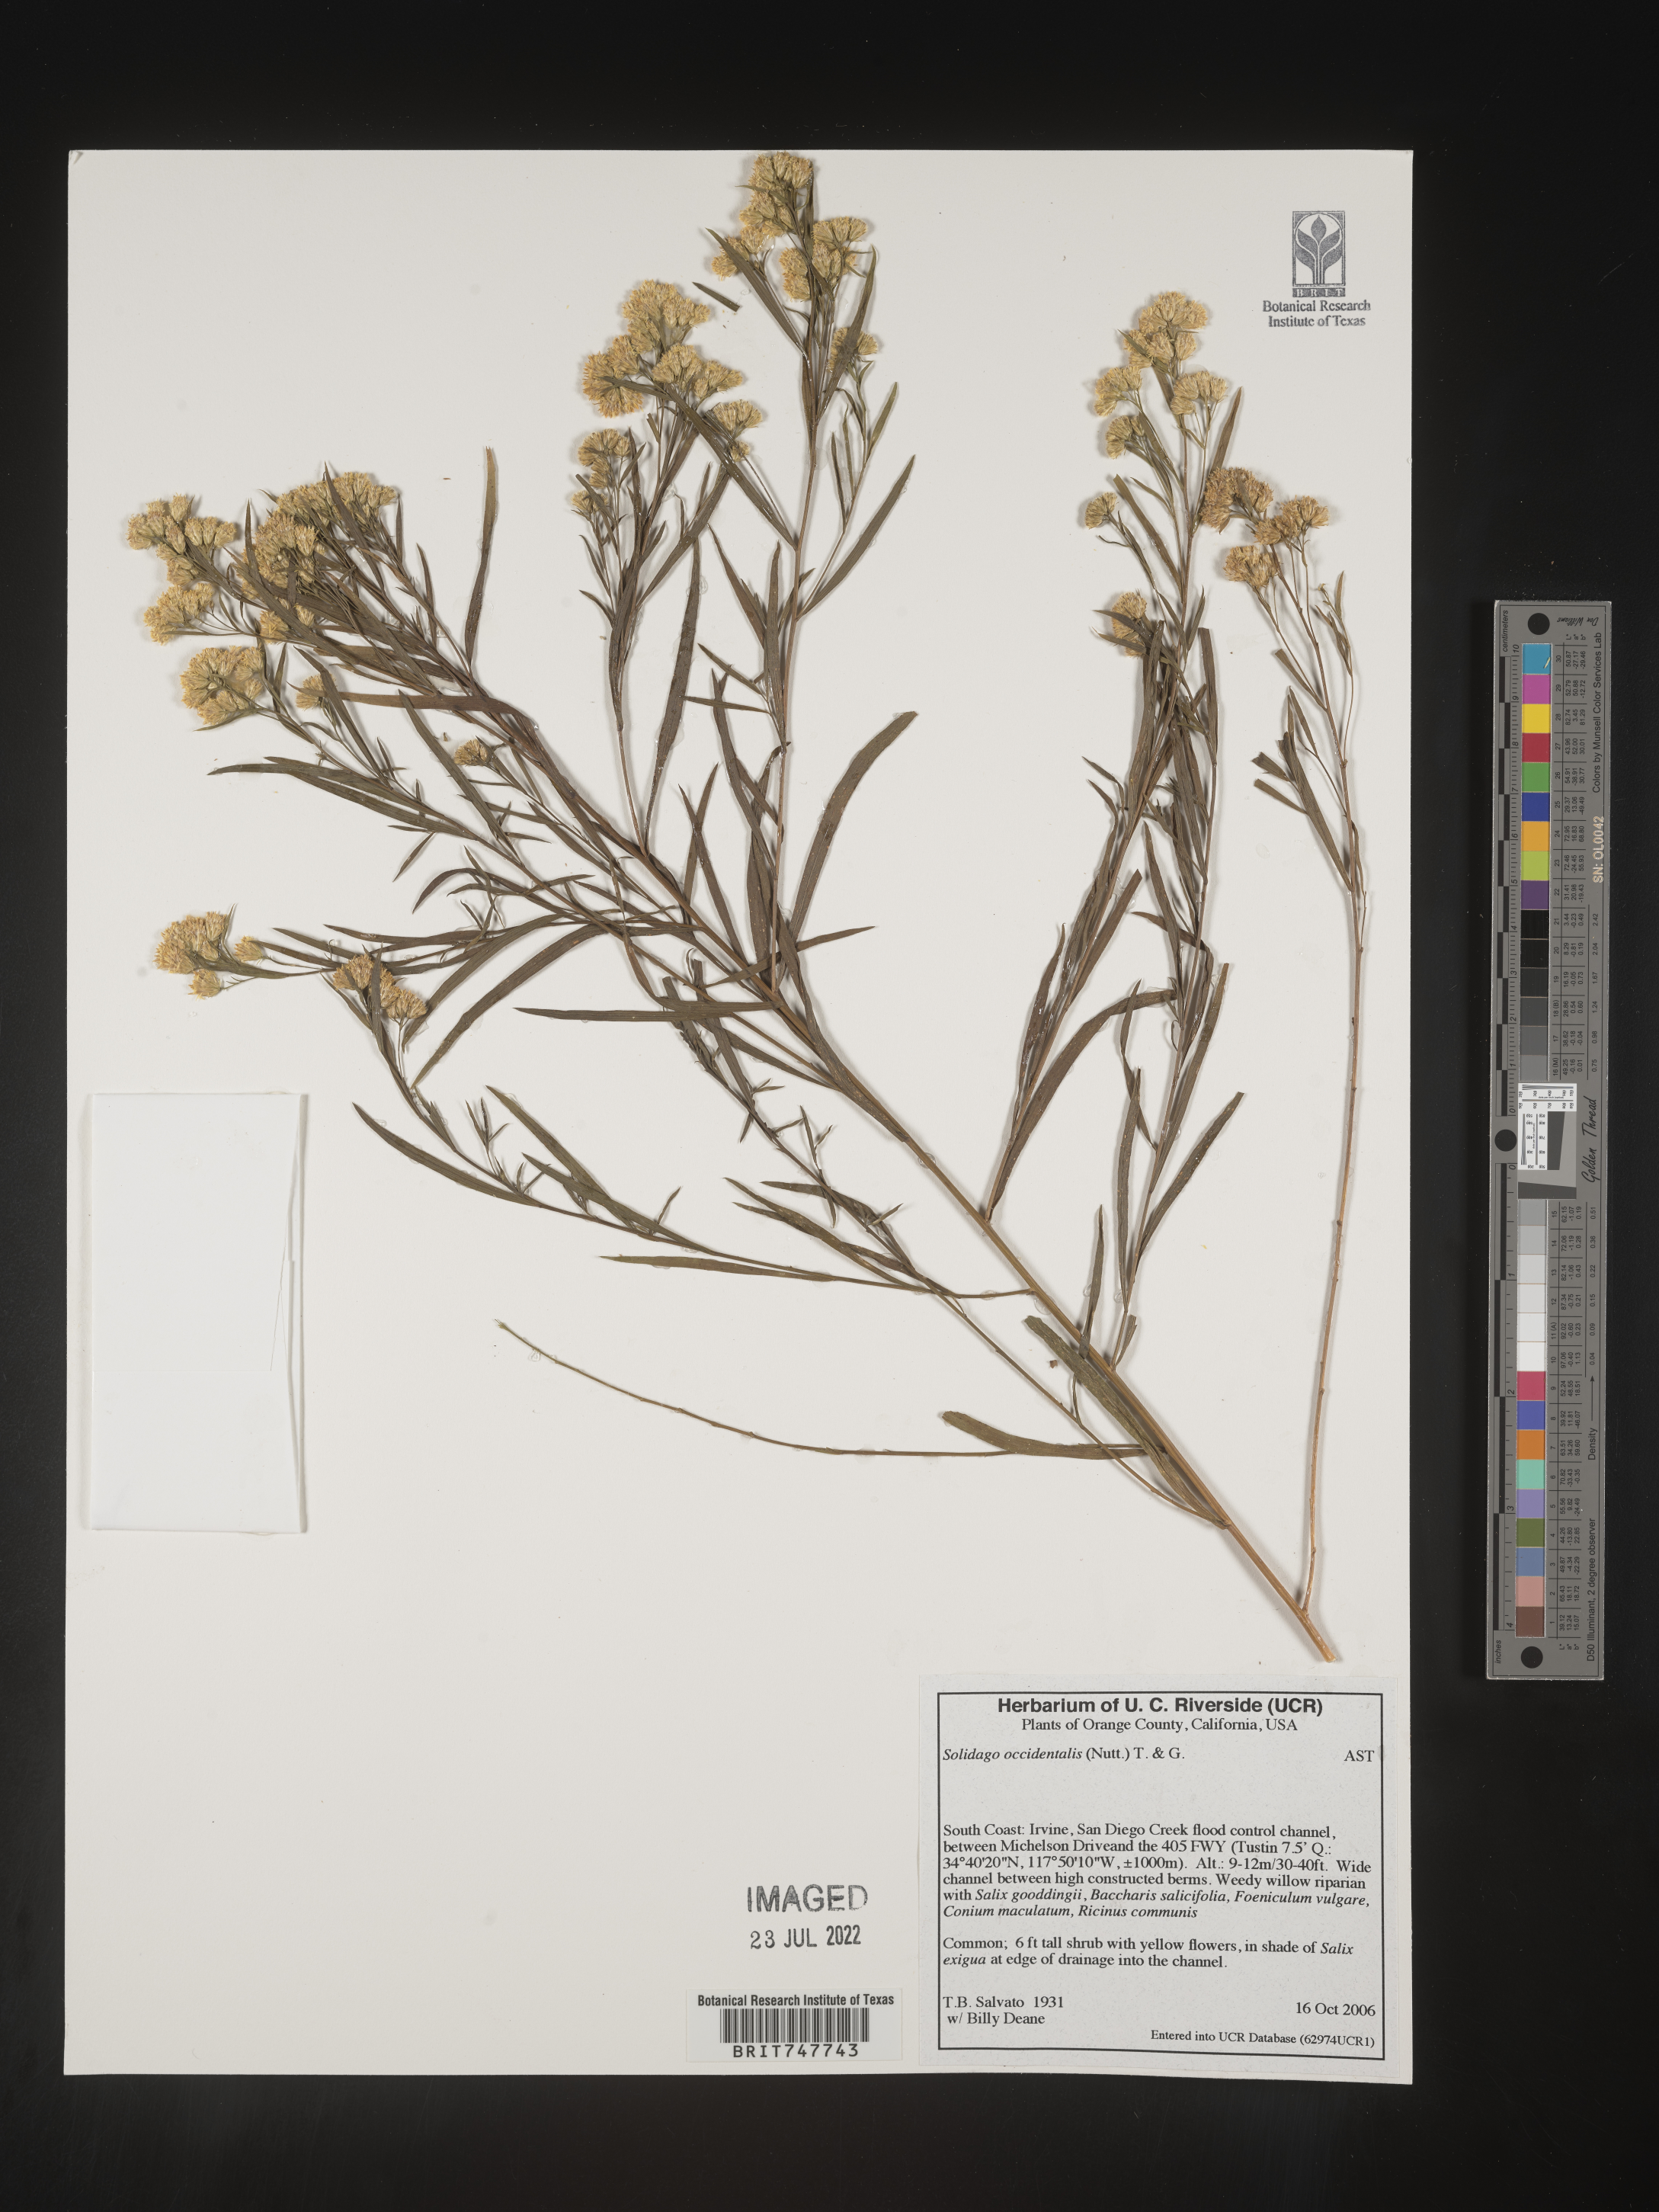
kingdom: Plantae
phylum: Tracheophyta
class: Magnoliopsida
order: Asterales
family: Asteraceae
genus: Euthamia
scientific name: Euthamia occidentalis
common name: Western goldentop
